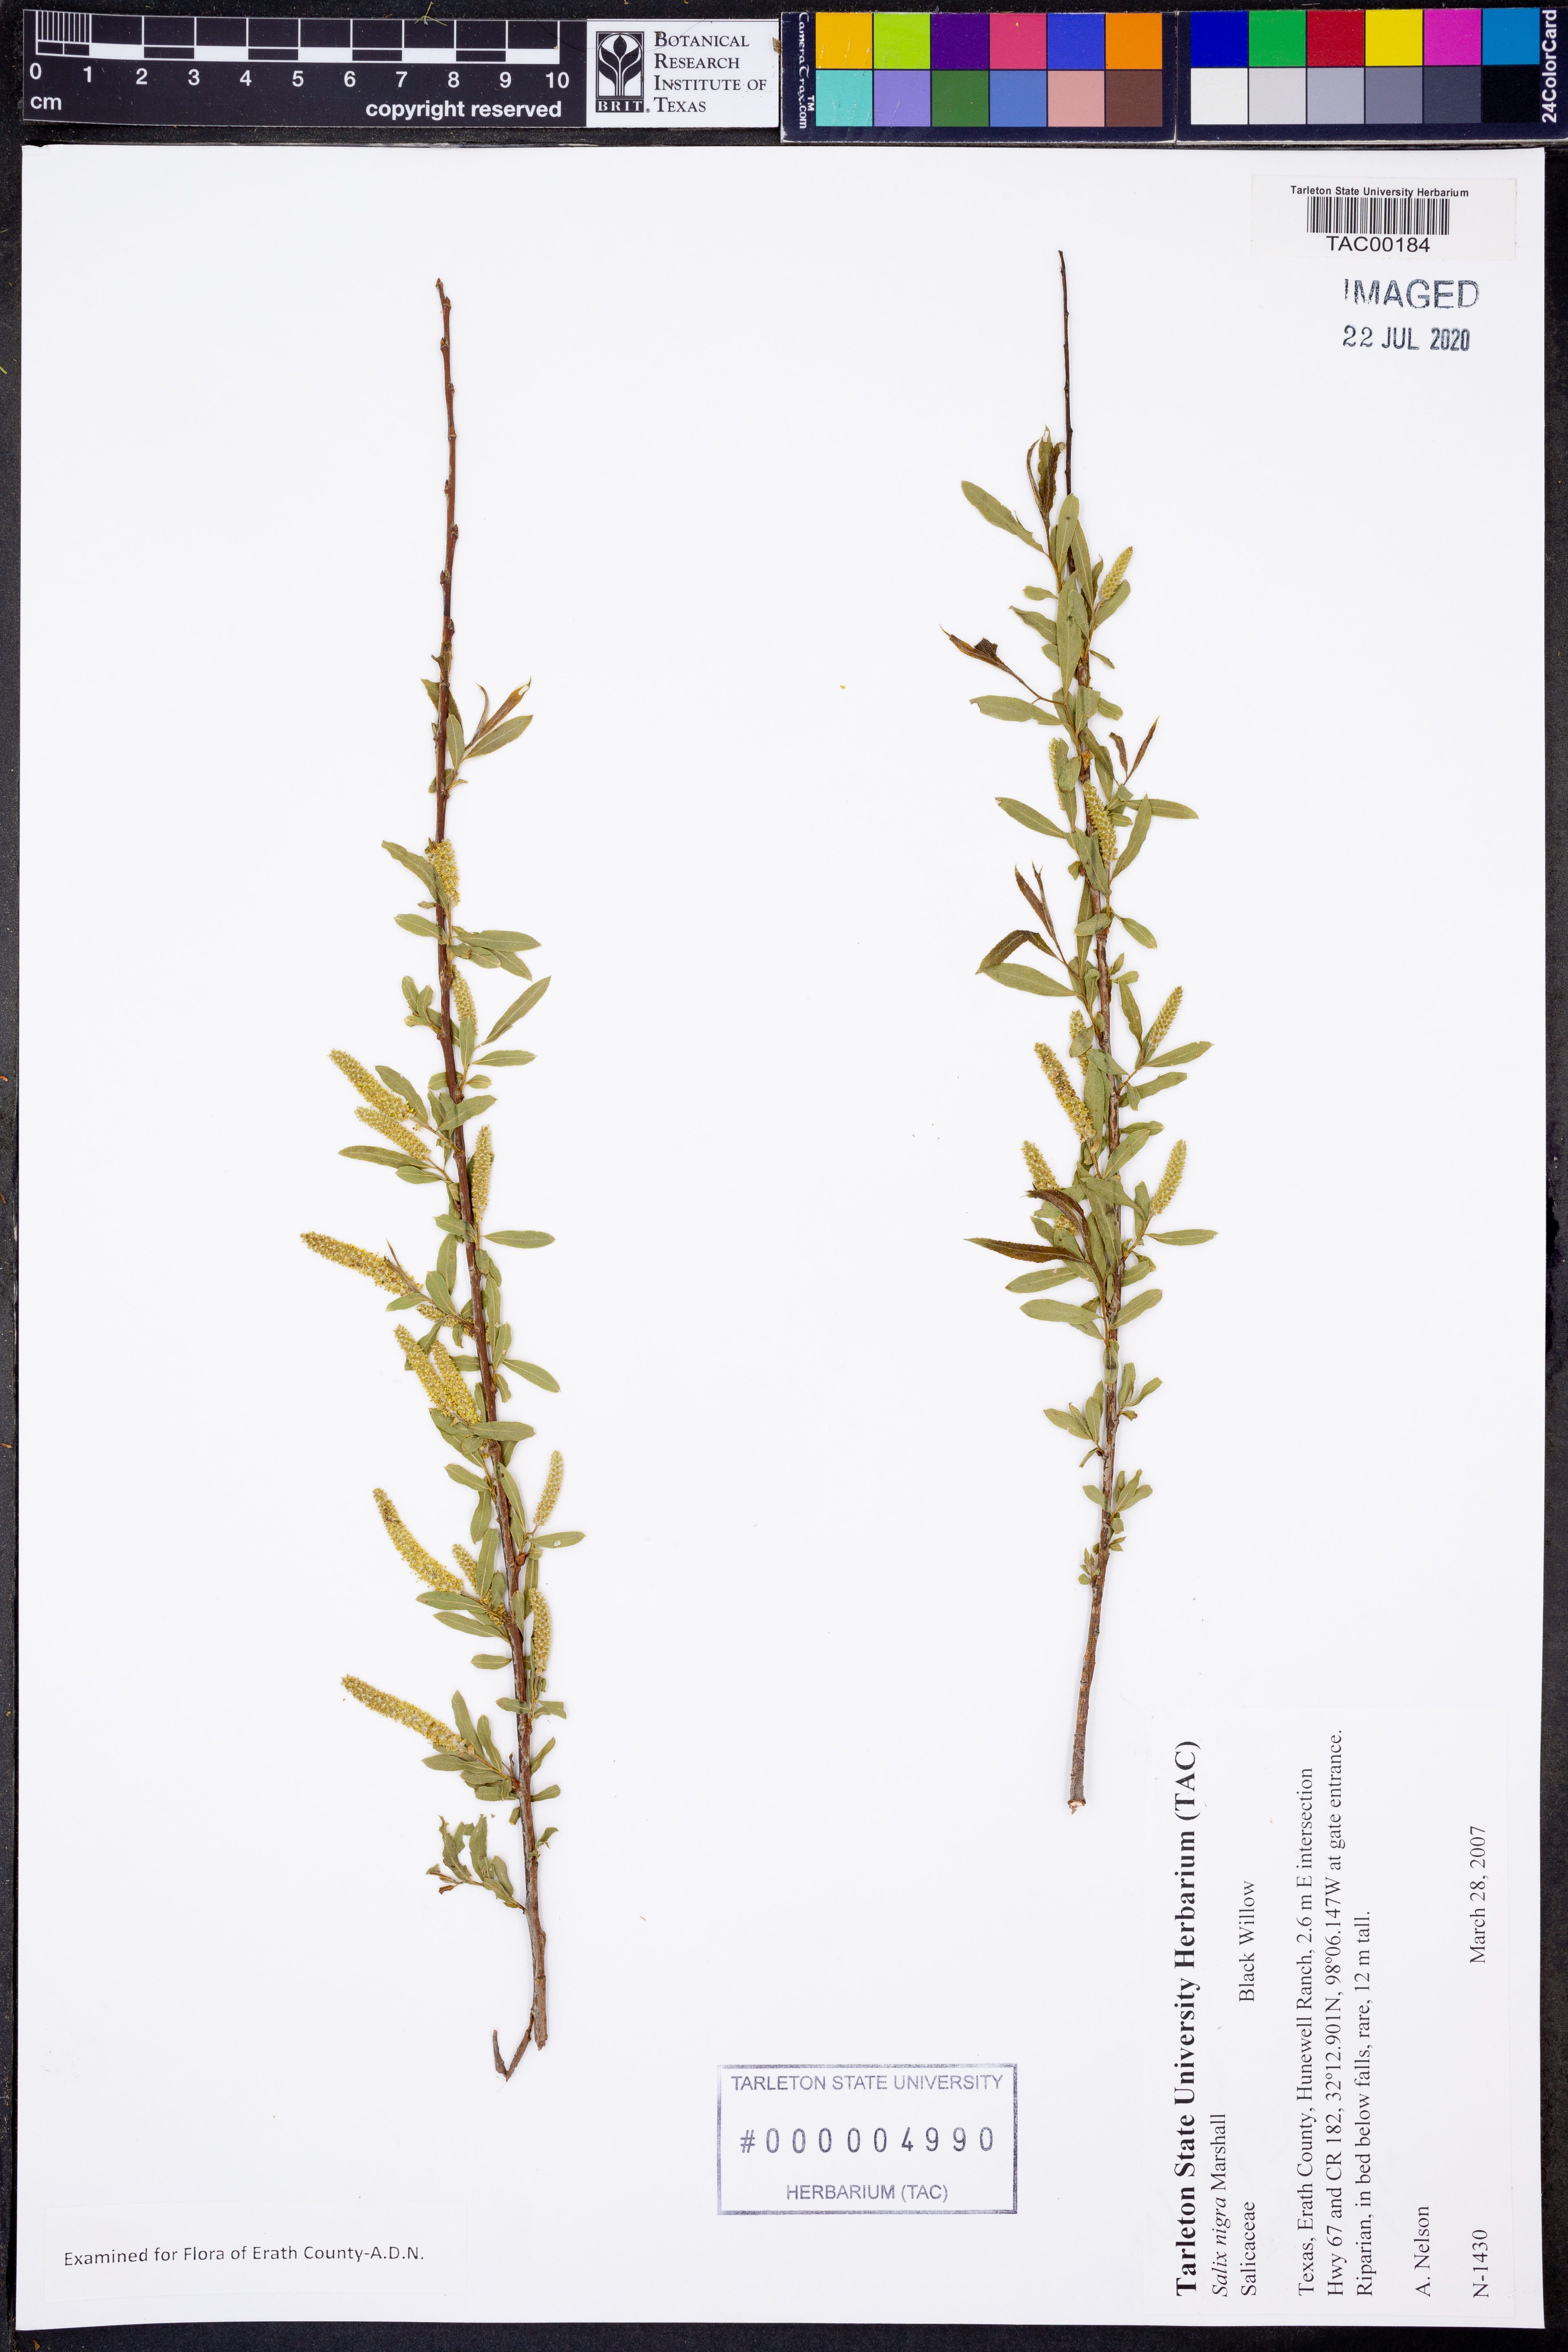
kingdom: Plantae
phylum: Tracheophyta
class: Magnoliopsida
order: Malpighiales
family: Salicaceae
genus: Salix
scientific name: Salix nigra
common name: Black willow
